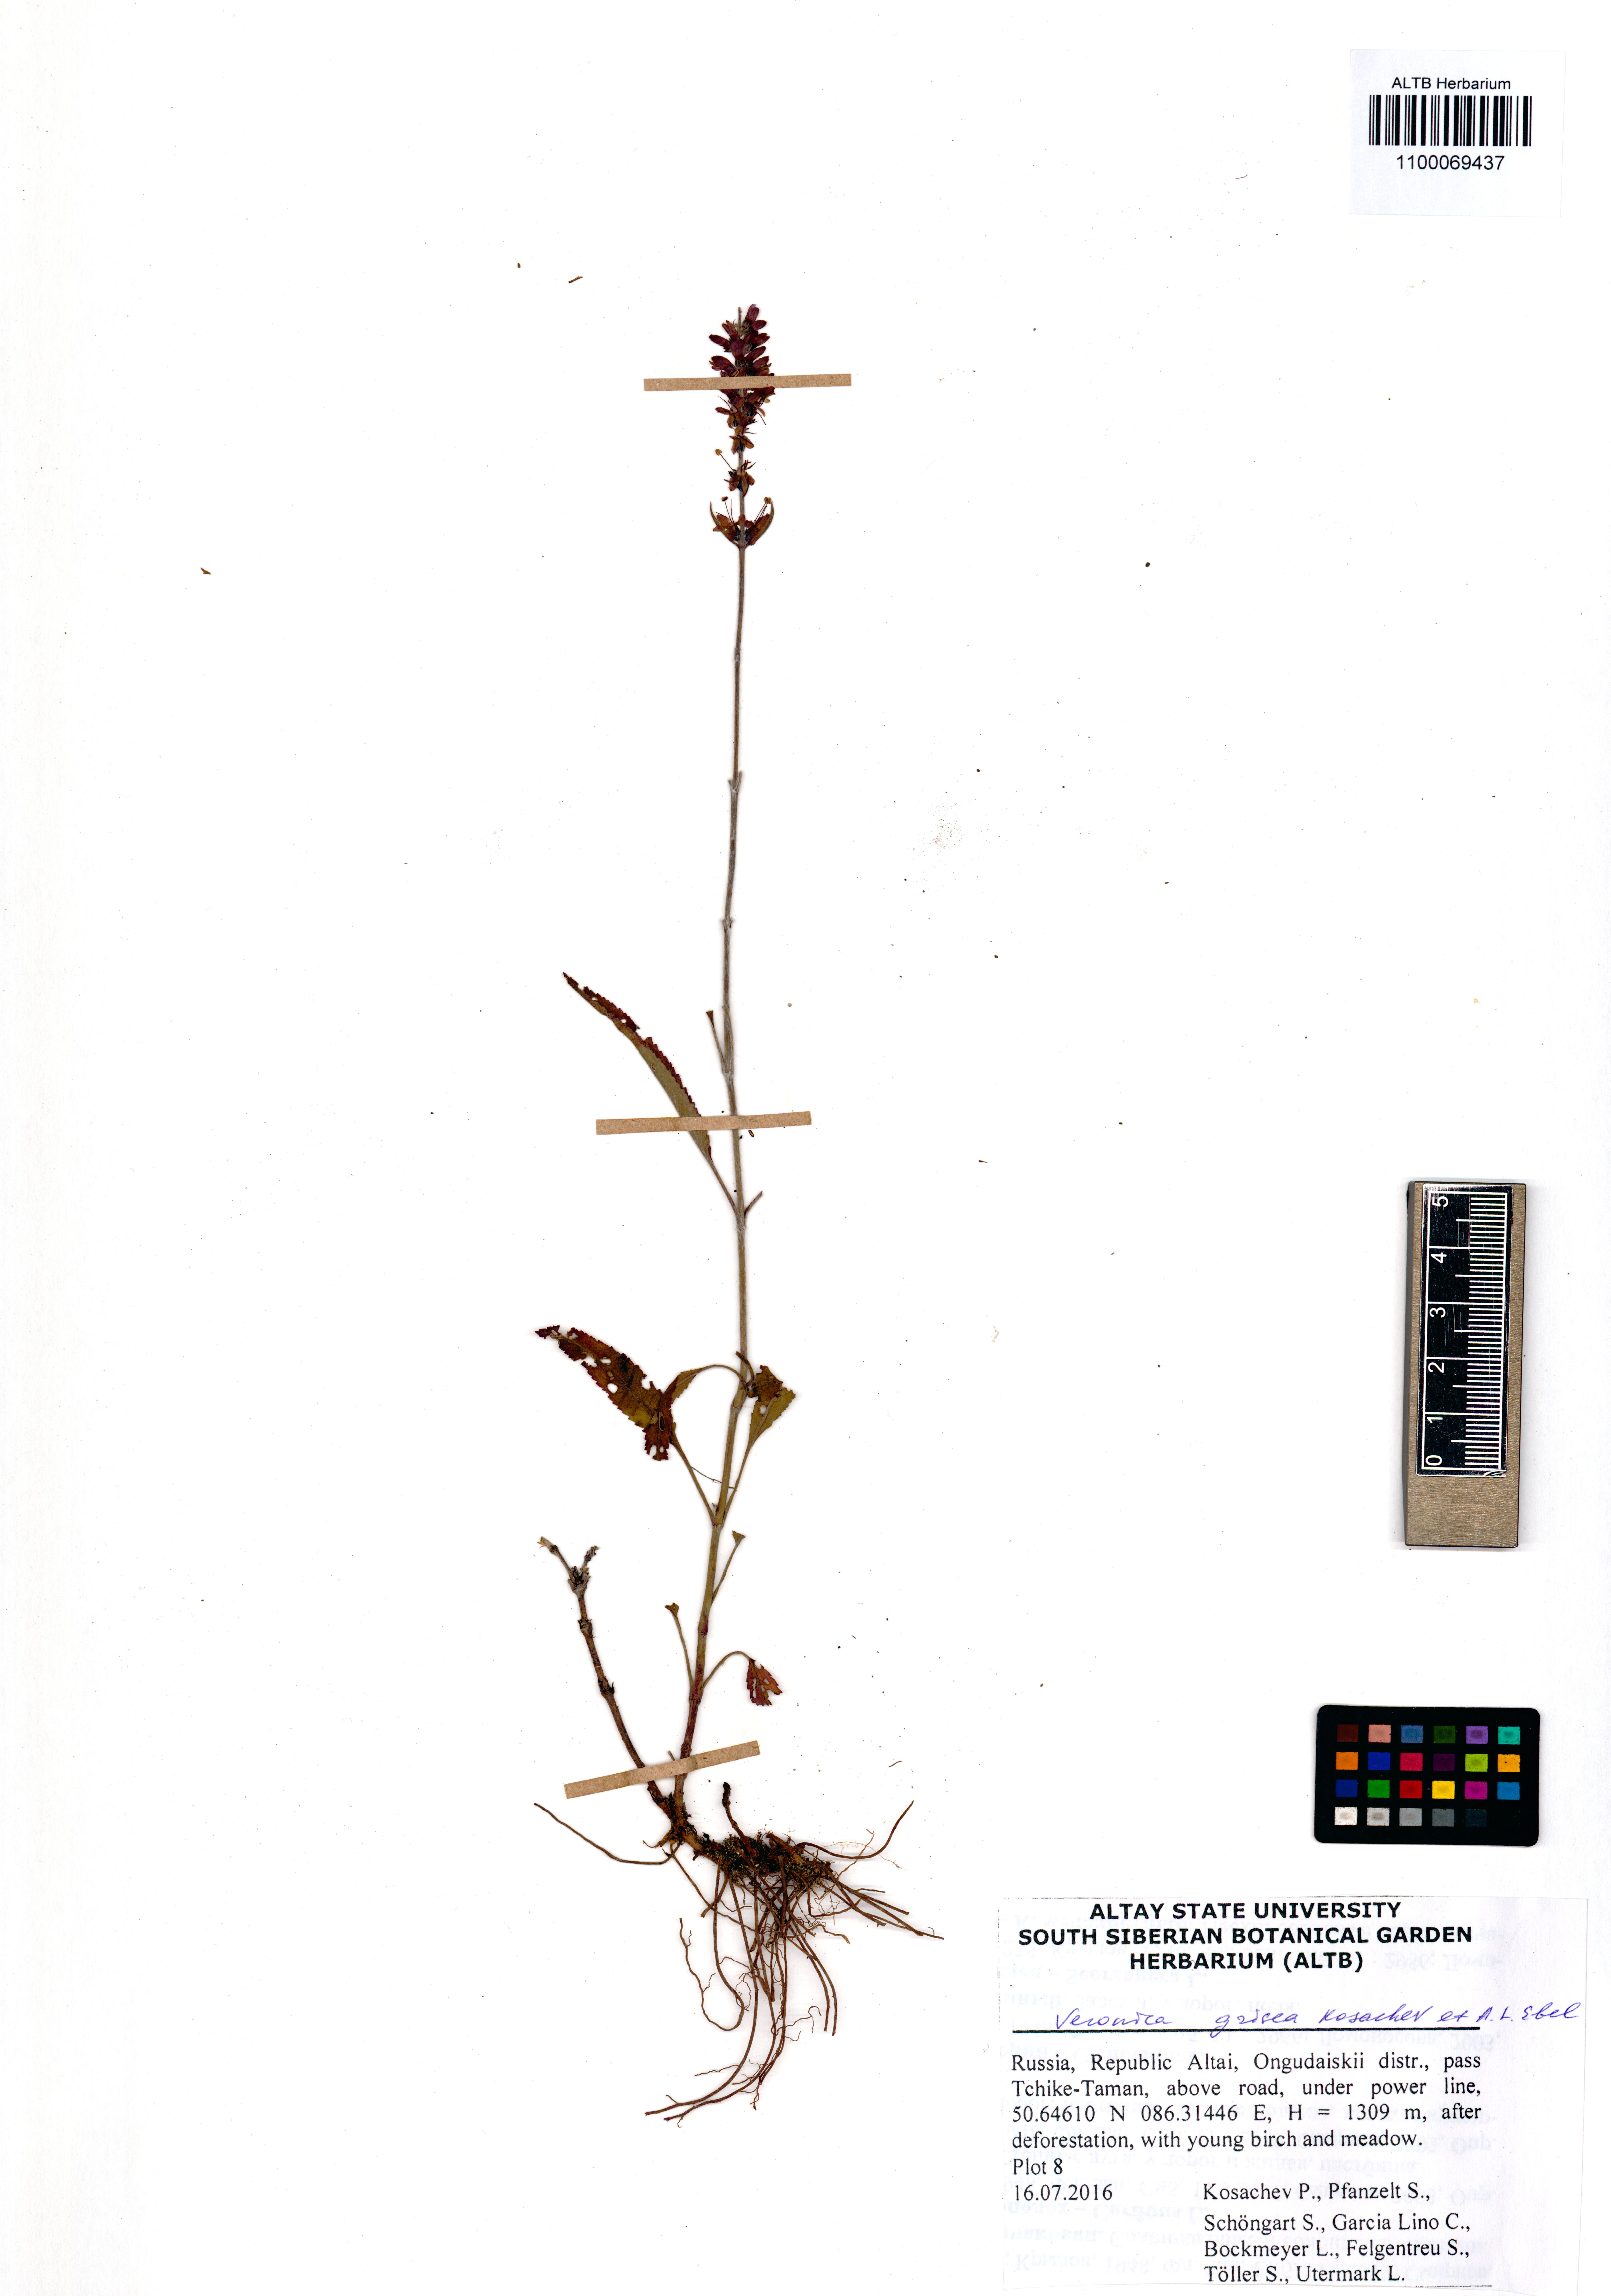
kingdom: Plantae
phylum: Tracheophyta
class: Magnoliopsida
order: Lamiales
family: Plantaginaceae
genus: Veronica
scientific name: Veronica grisea
